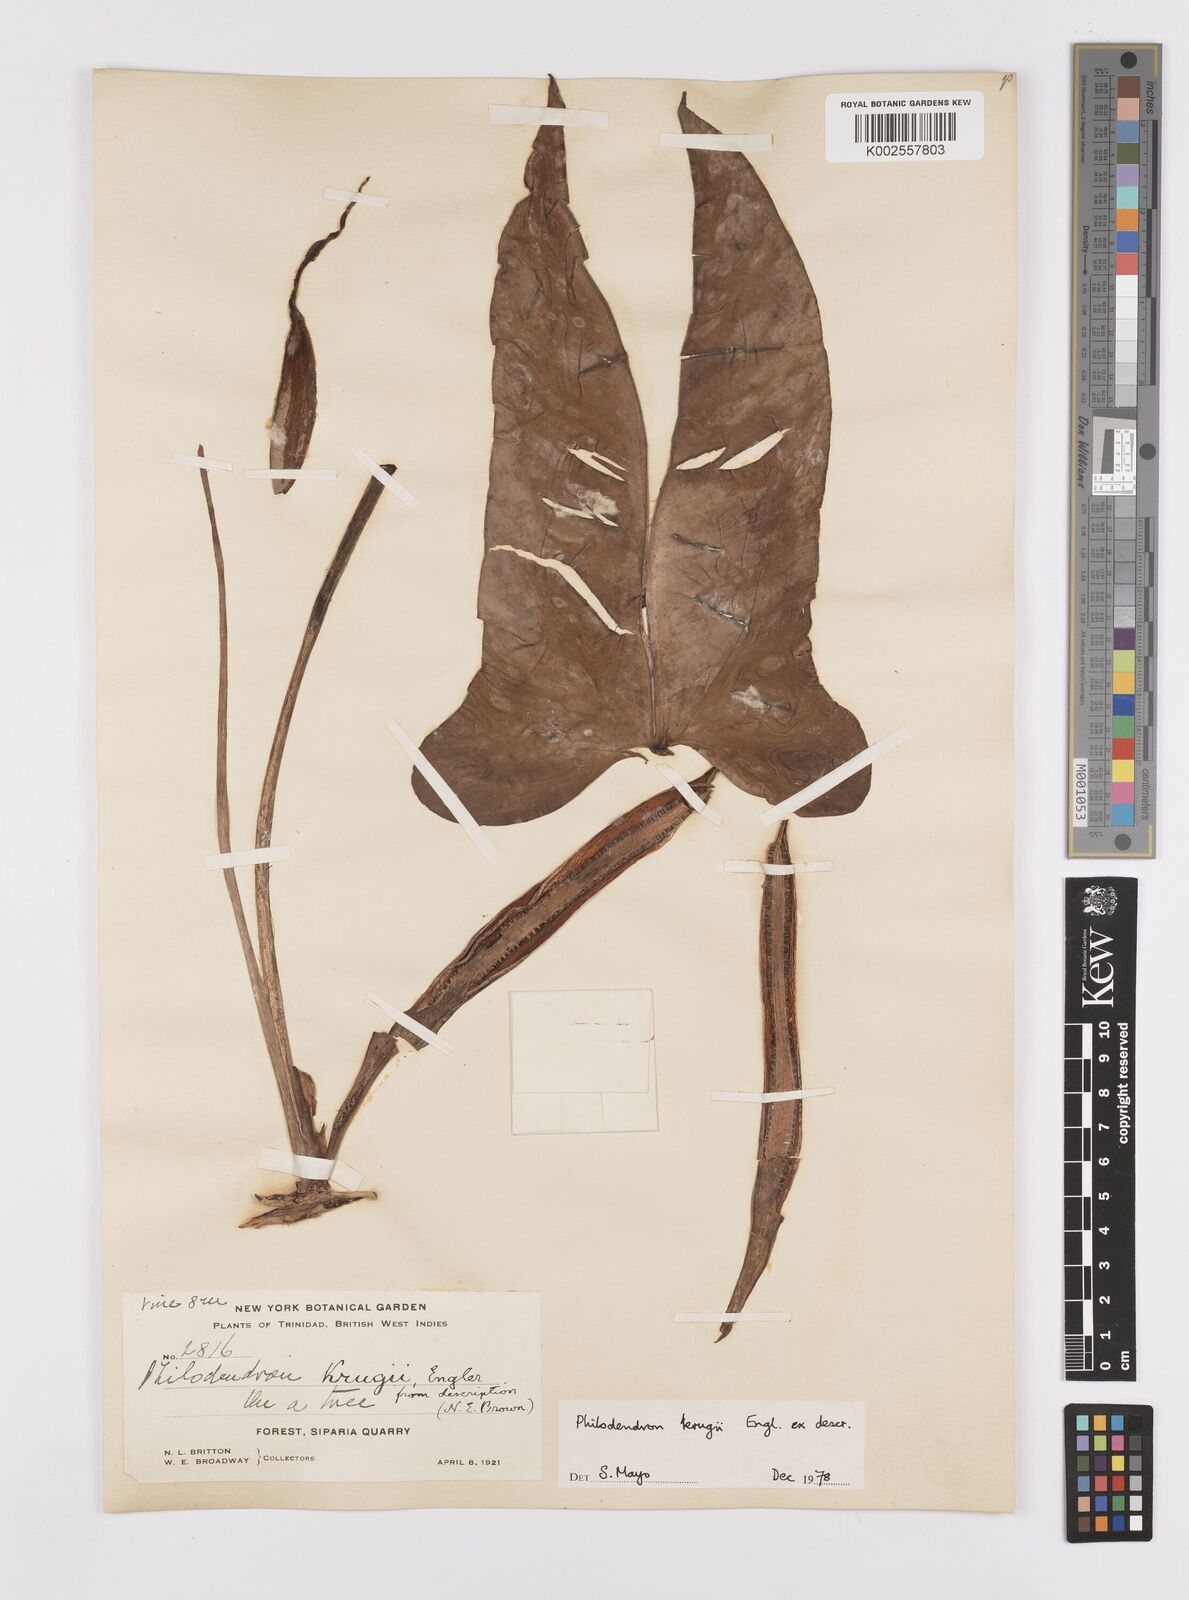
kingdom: Plantae
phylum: Tracheophyta
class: Liliopsida
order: Alismatales
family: Araceae
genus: Philodendron
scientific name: Philodendron krugii
